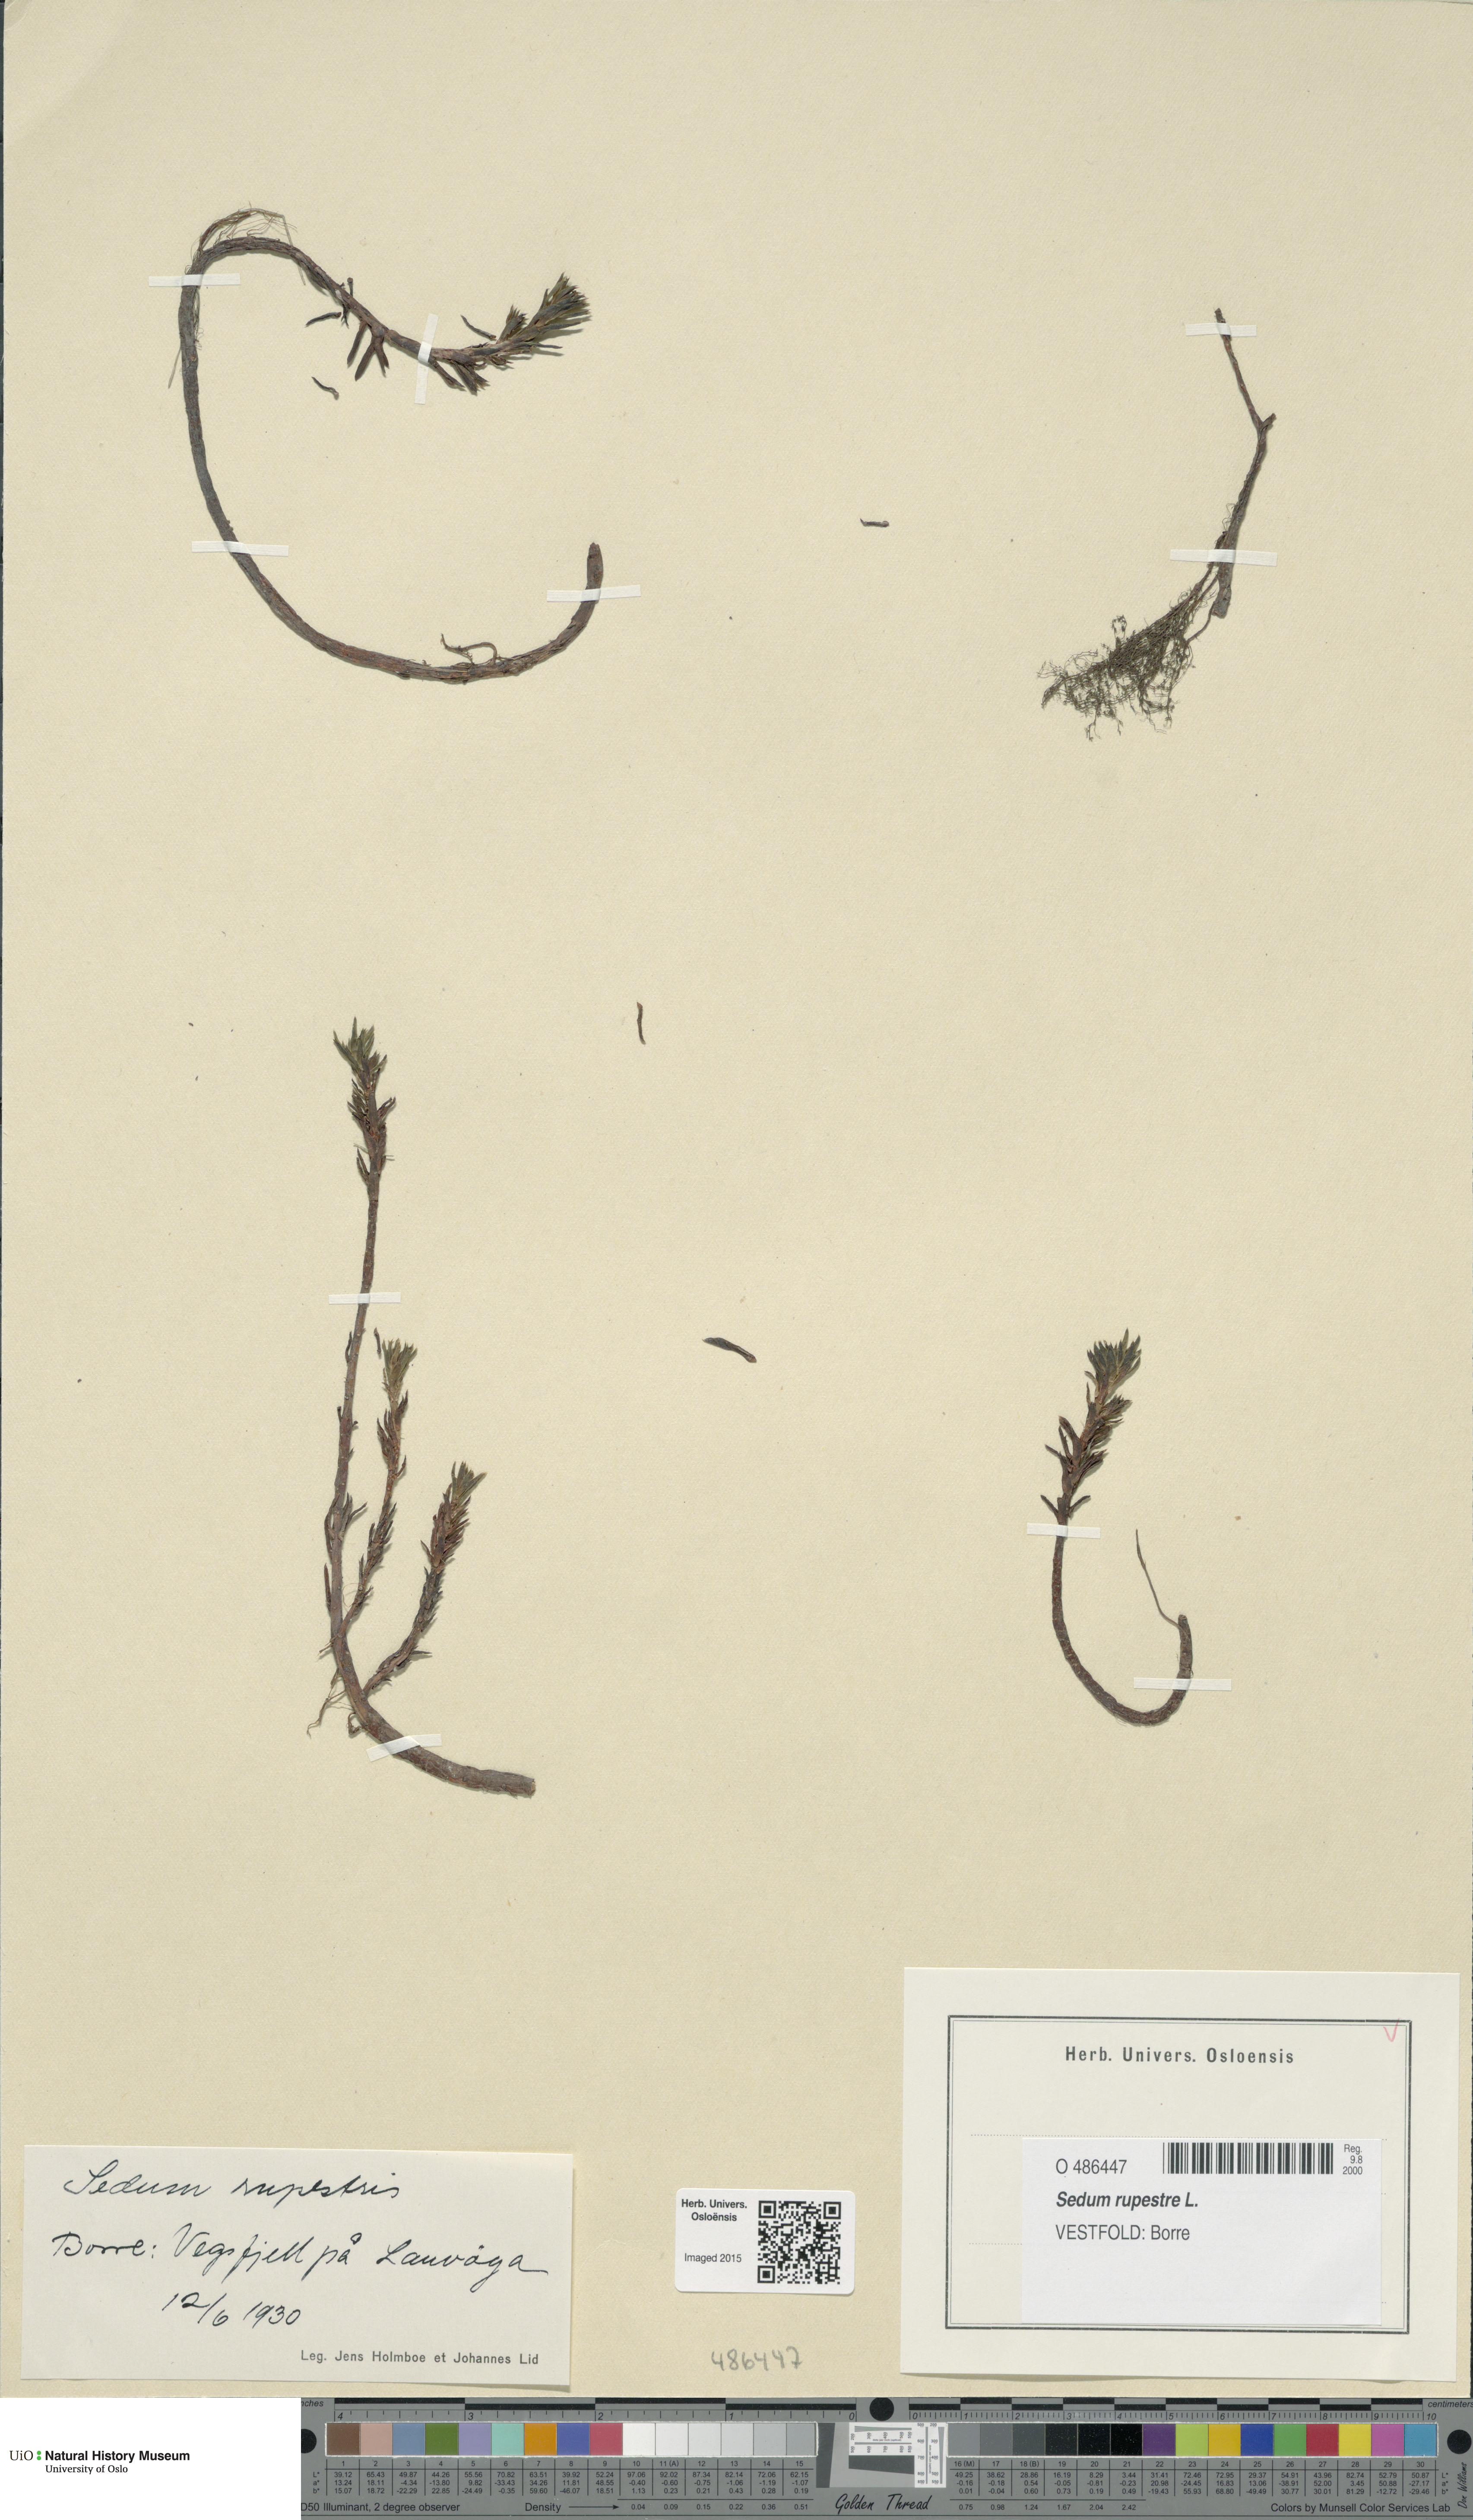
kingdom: Plantae
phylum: Tracheophyta
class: Magnoliopsida
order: Saxifragales
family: Crassulaceae
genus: Petrosedum
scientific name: Petrosedum rupestre
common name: Jenny's stonecrop
